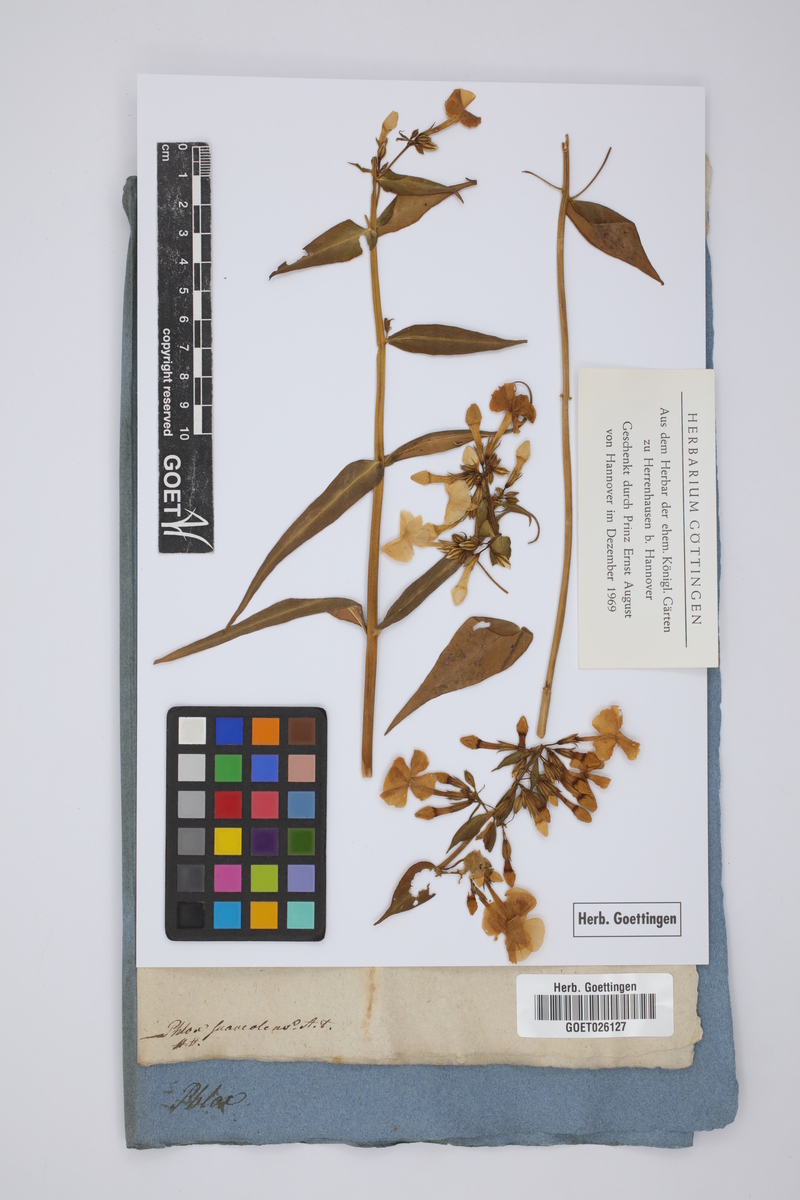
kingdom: Plantae
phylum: Tracheophyta
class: Magnoliopsida
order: Ericales
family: Polemoniaceae
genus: Phlox
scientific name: Phlox maculata
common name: Meadow phlox
